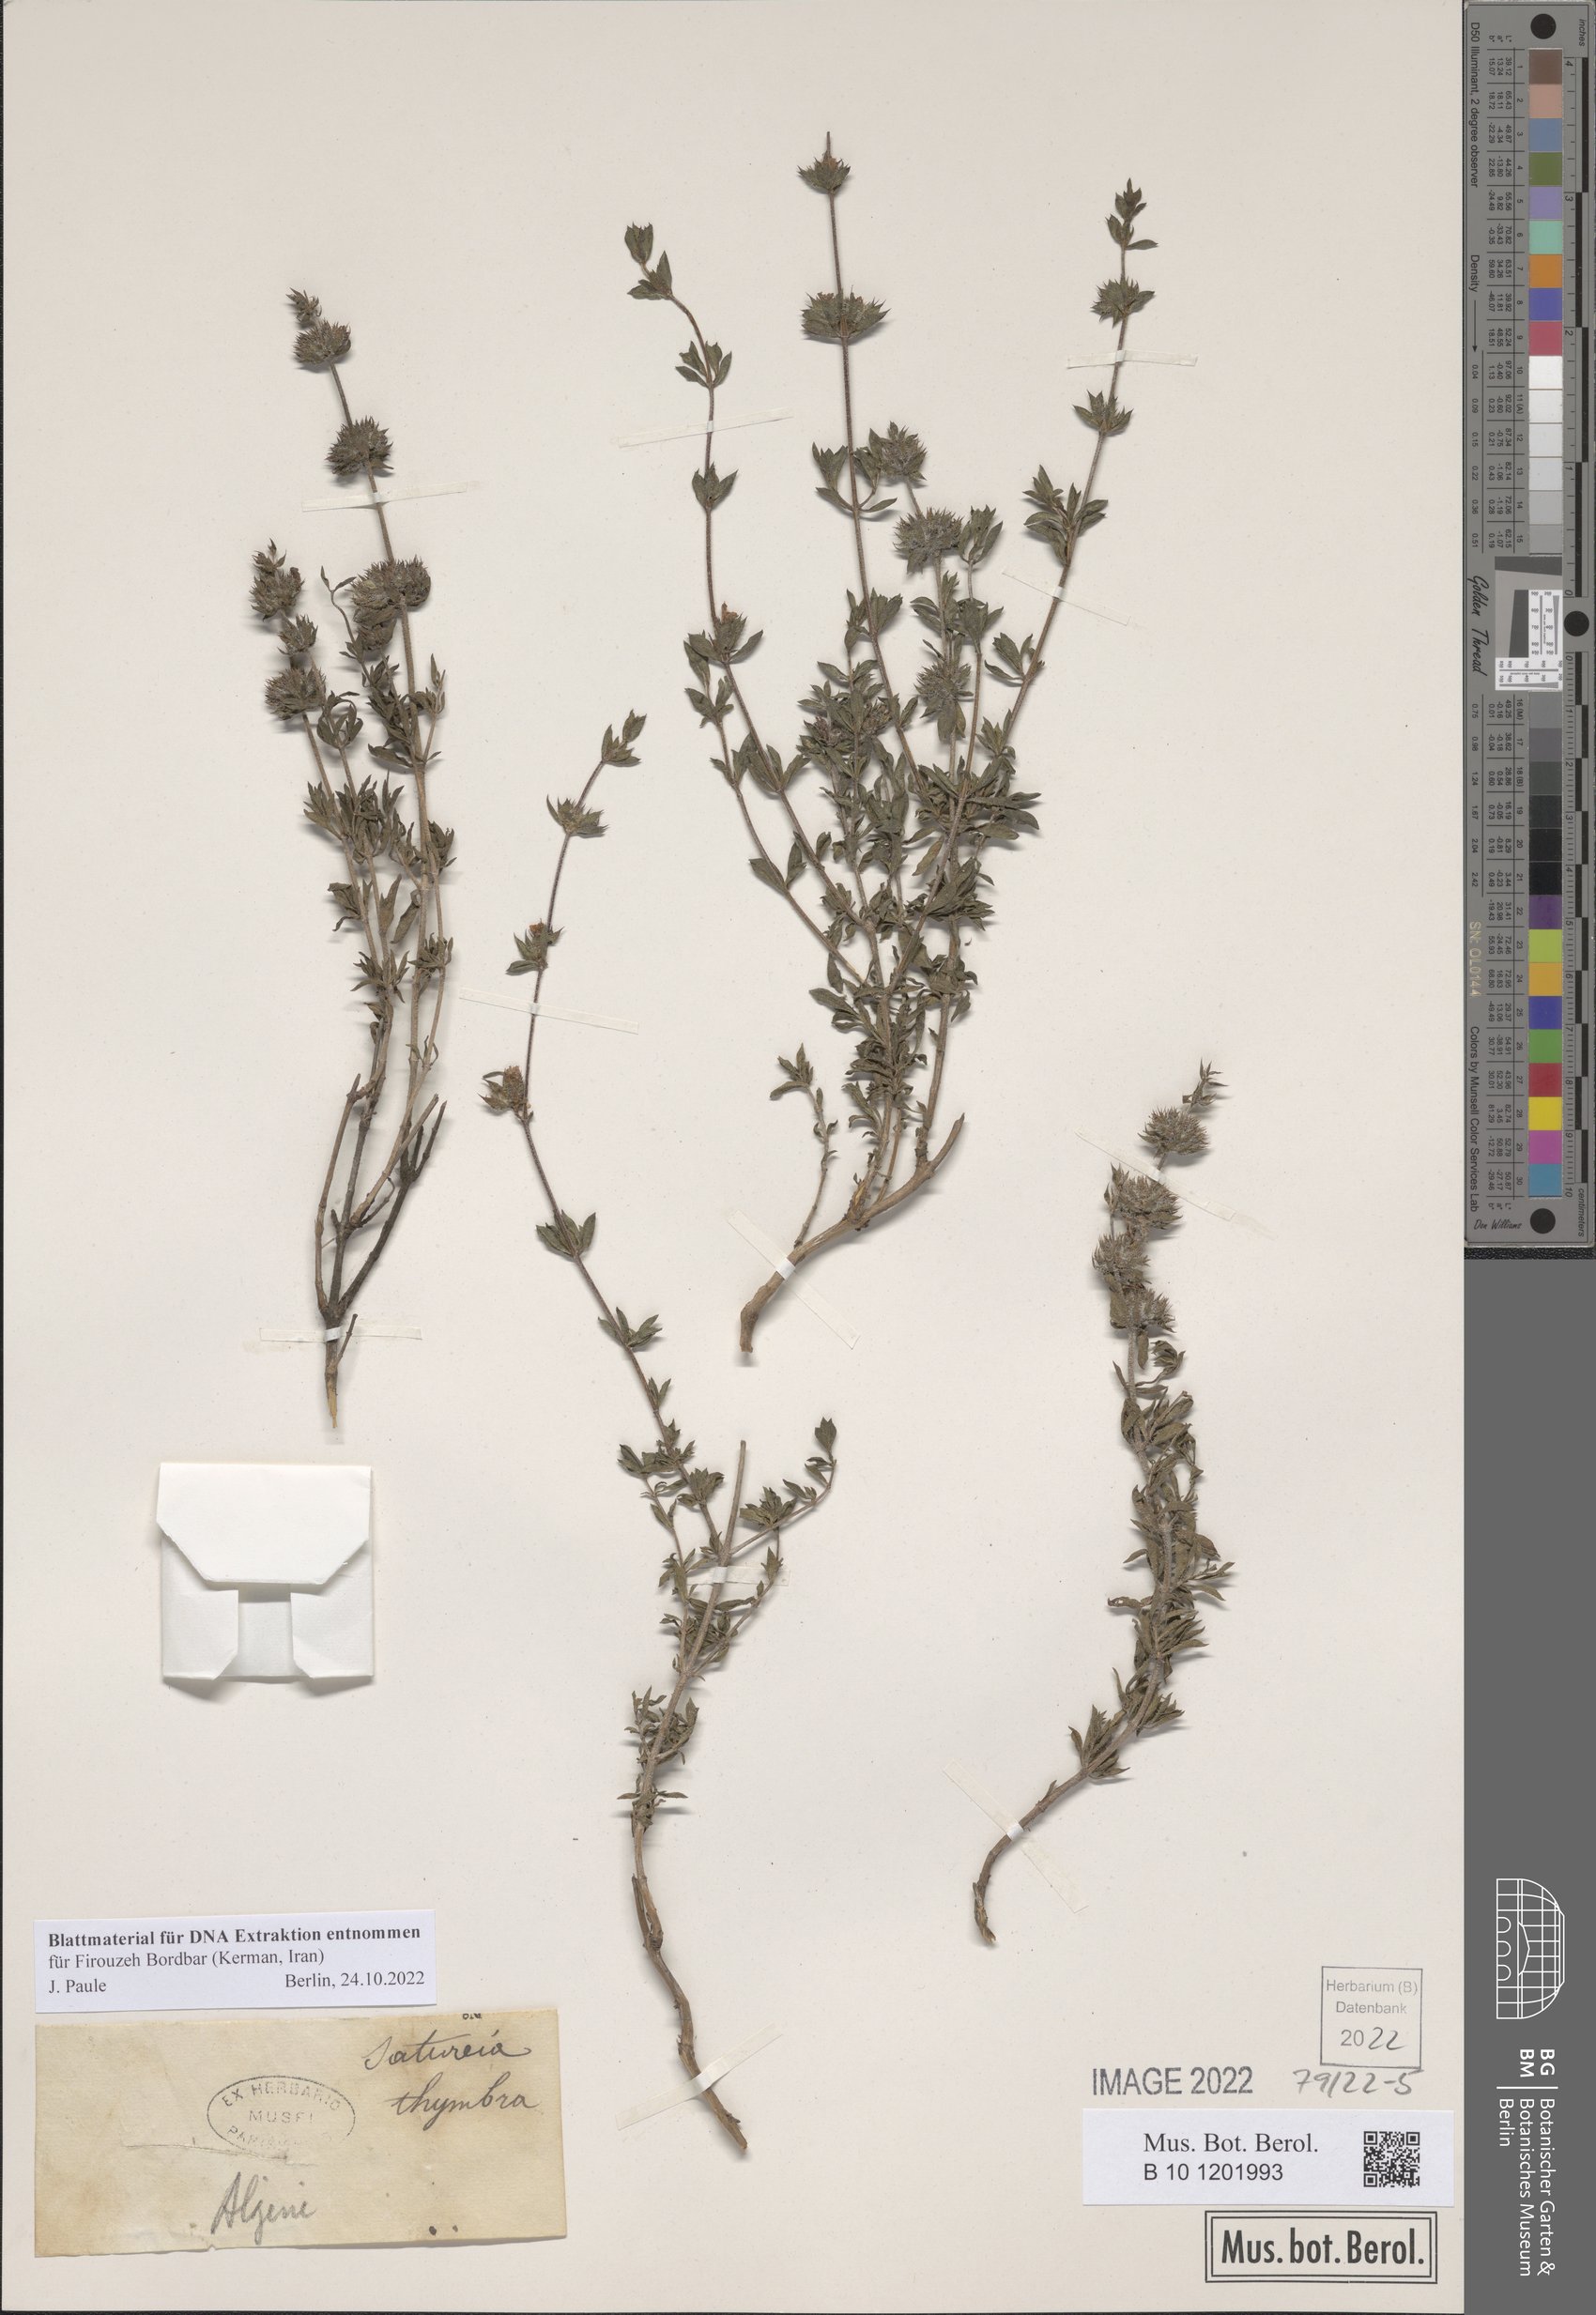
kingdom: Plantae
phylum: Tracheophyta
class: Magnoliopsida
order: Lamiales
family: Lamiaceae
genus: Satureja
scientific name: Satureja thymbra
